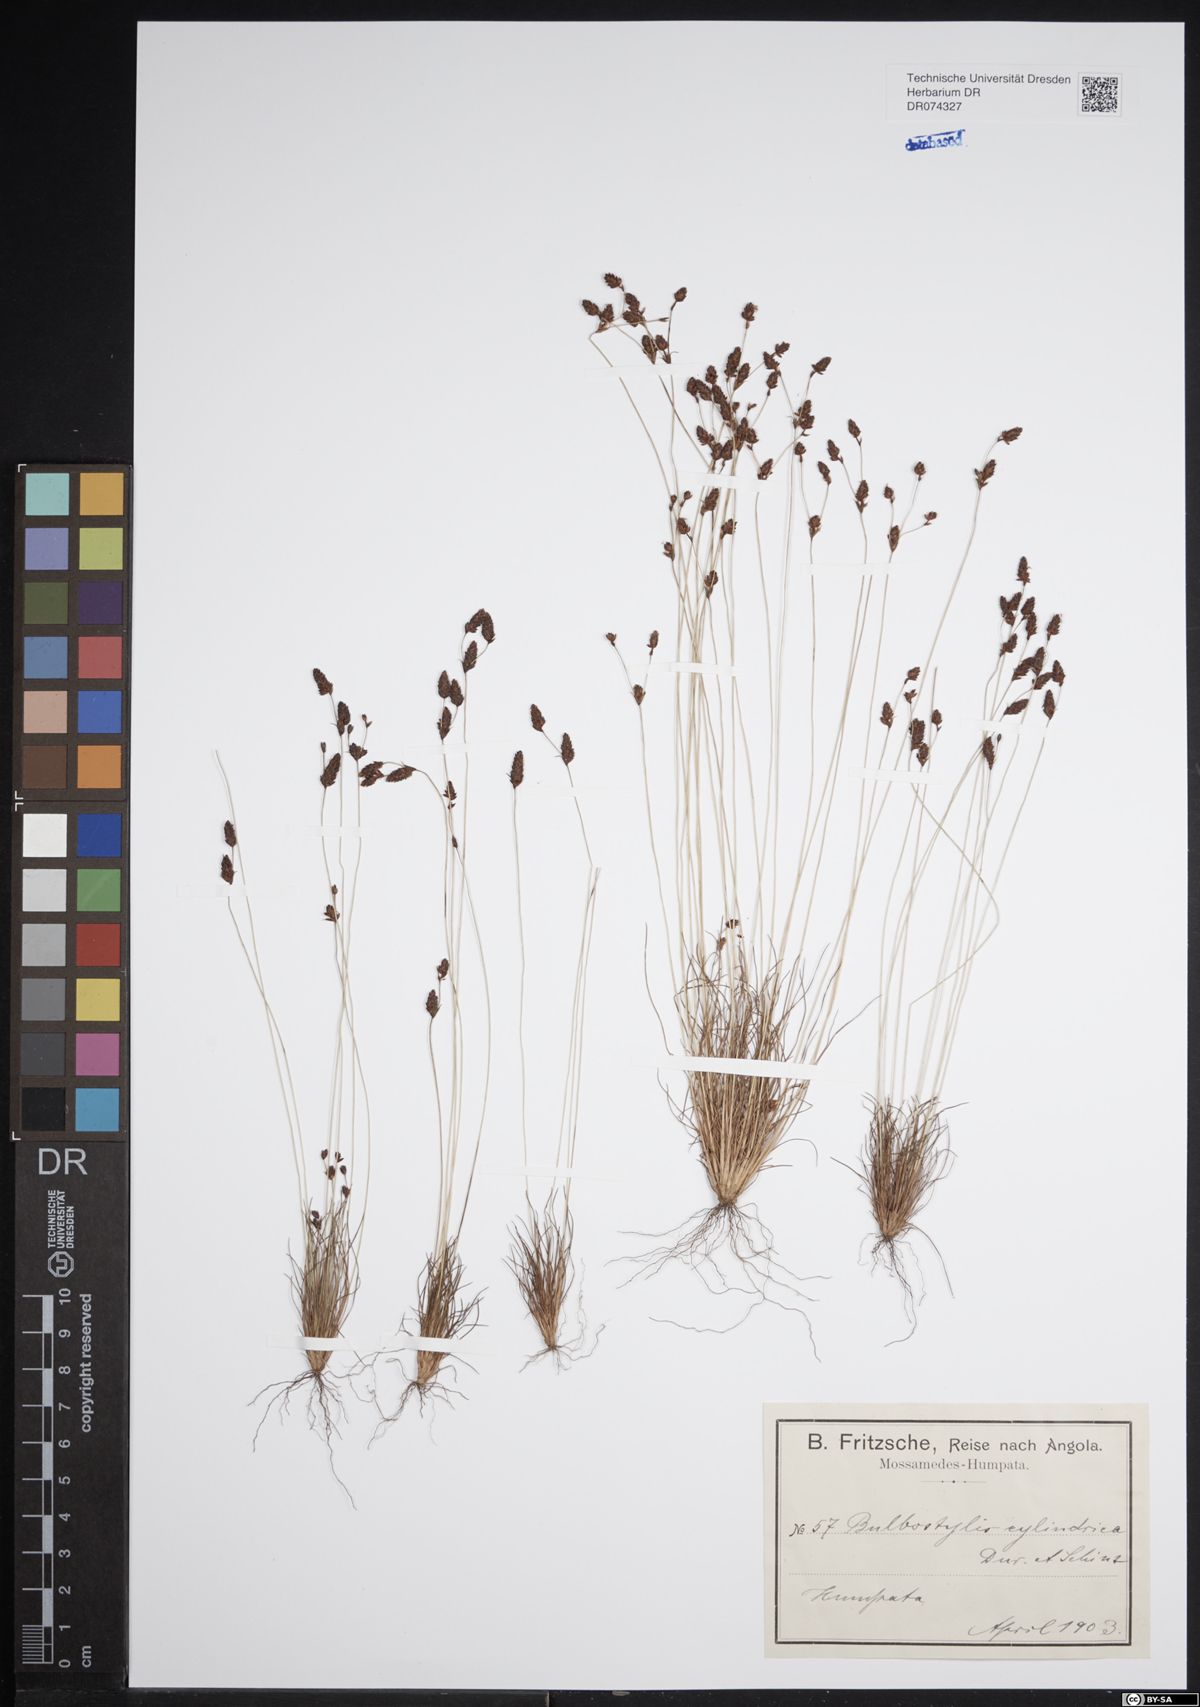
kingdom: Plantae
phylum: Tracheophyta
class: Liliopsida
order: Poales
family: Cyperaceae
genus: Bulbostylis
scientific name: Bulbostylis
